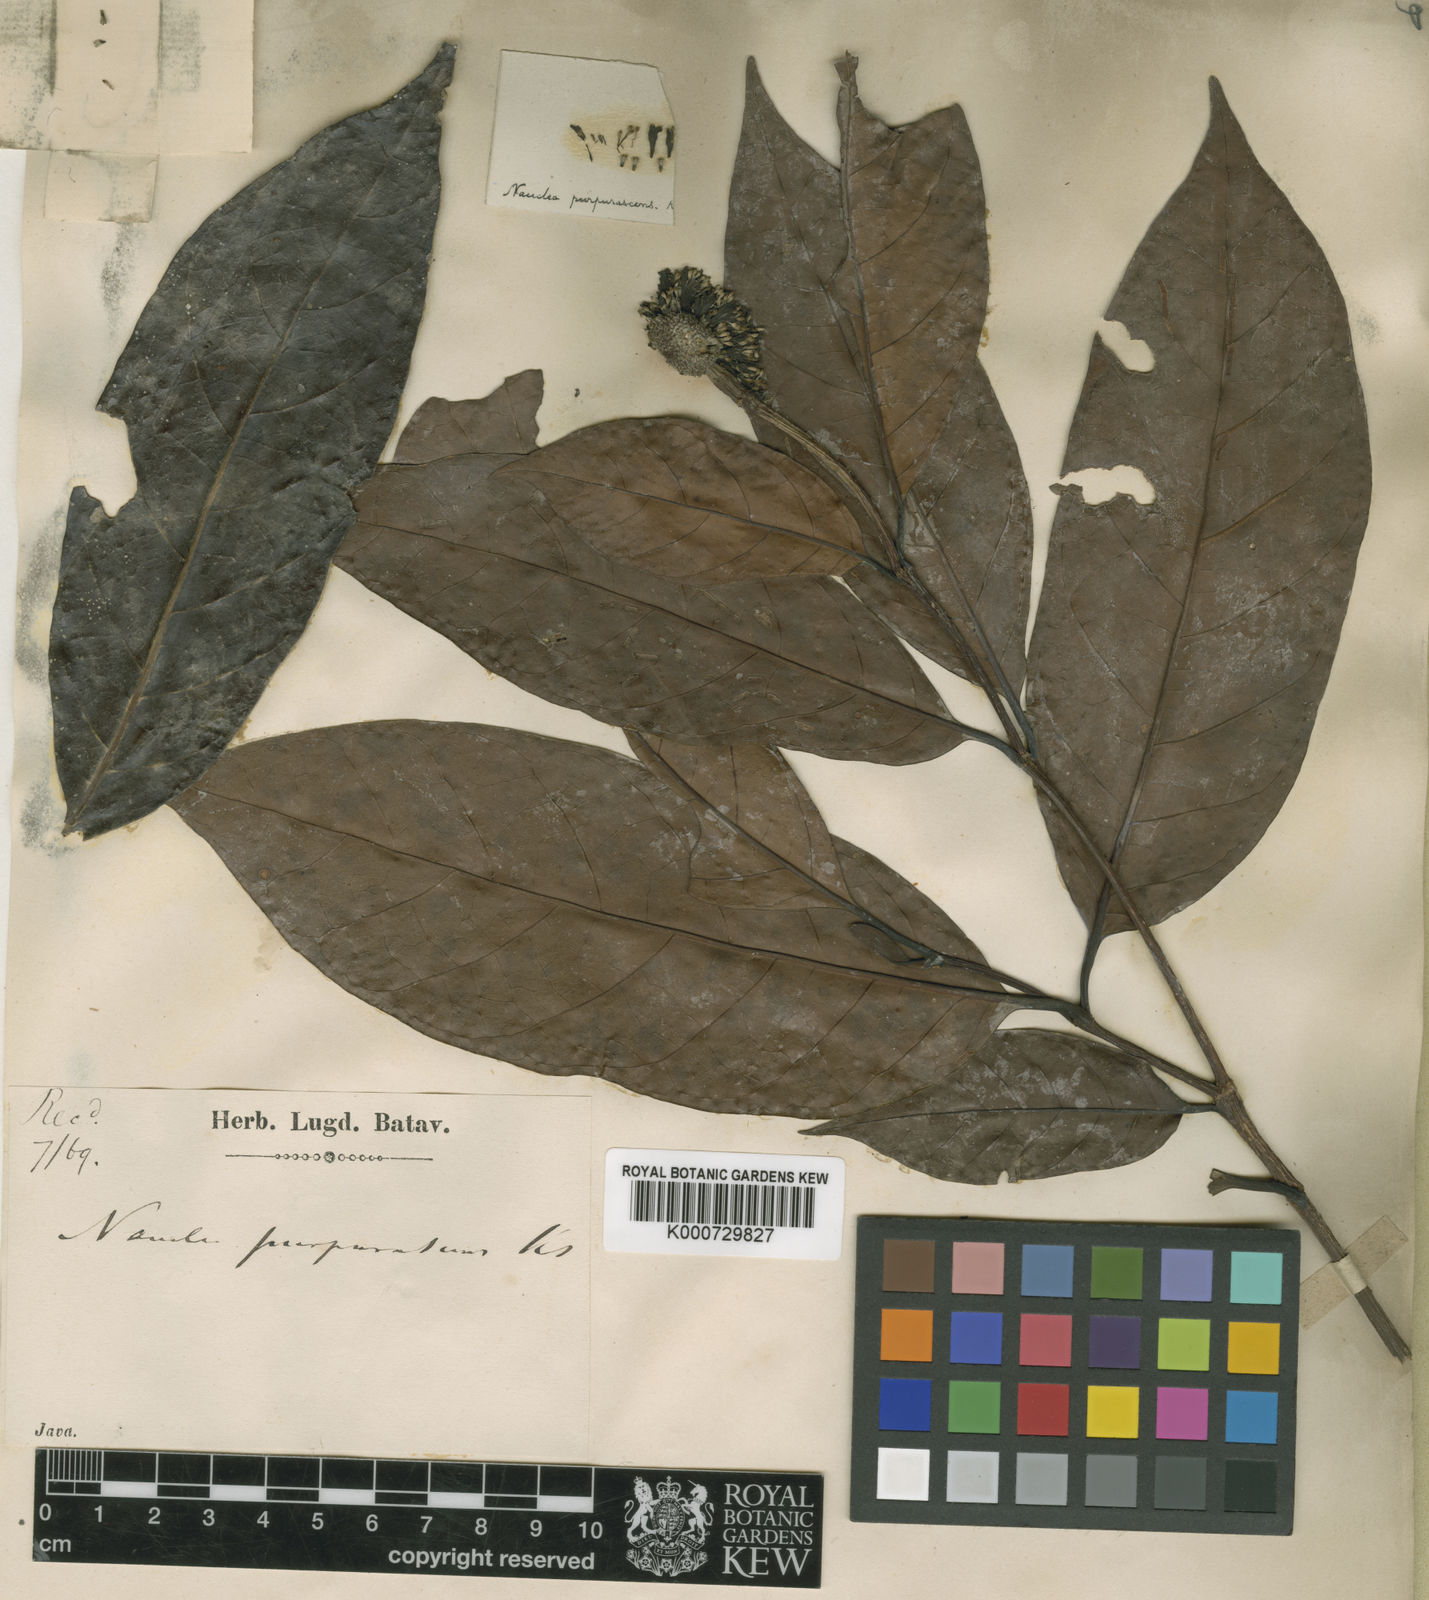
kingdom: Plantae
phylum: Tracheophyta
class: Magnoliopsida
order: Gentianales
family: Rubiaceae
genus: Neonauclea
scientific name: Neonauclea
